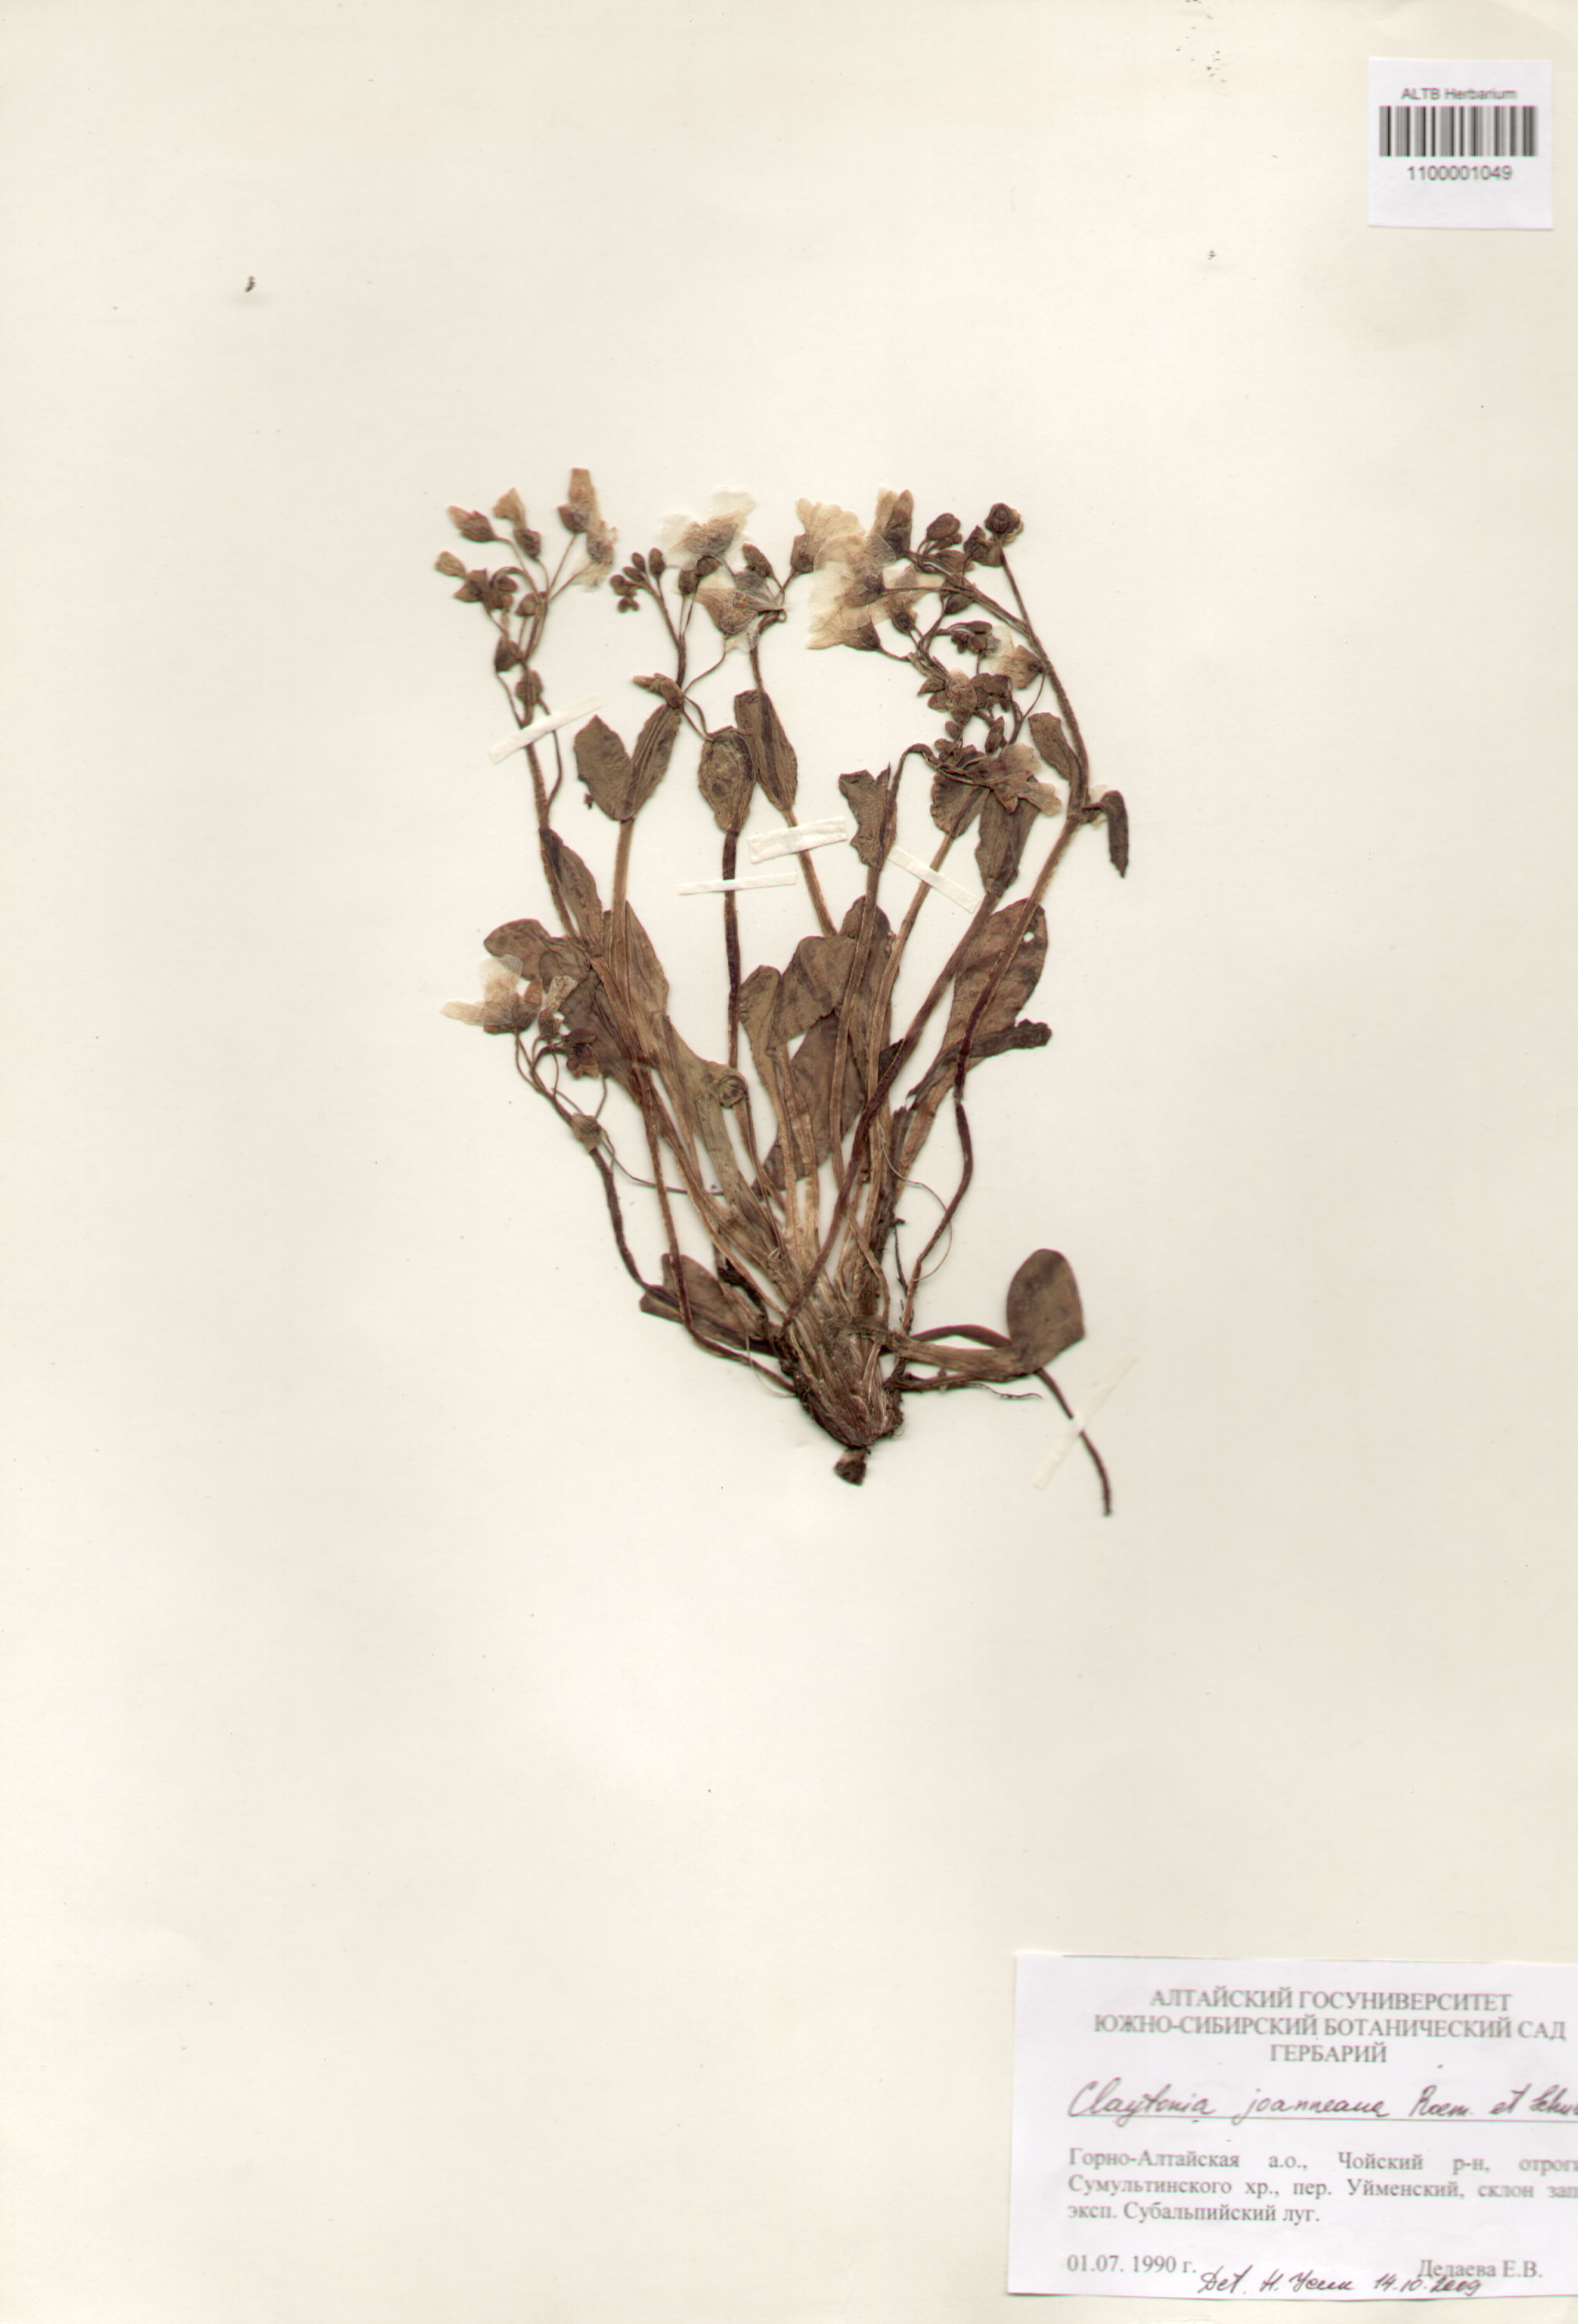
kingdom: Plantae
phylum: Tracheophyta
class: Magnoliopsida
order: Caryophyllales
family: Montiaceae
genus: Claytonia
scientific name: Claytonia joanneana
